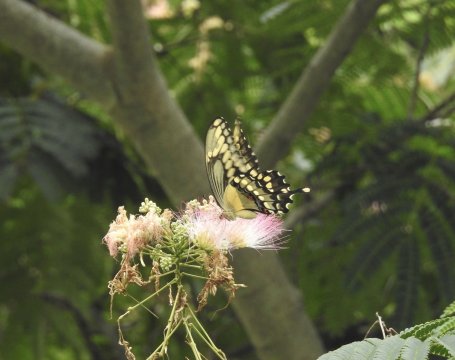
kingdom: Animalia
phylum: Arthropoda
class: Insecta
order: Lepidoptera
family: Papilionidae
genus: Papilio
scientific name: Papilio cresphontes
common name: Eastern Giant Swallowtail
